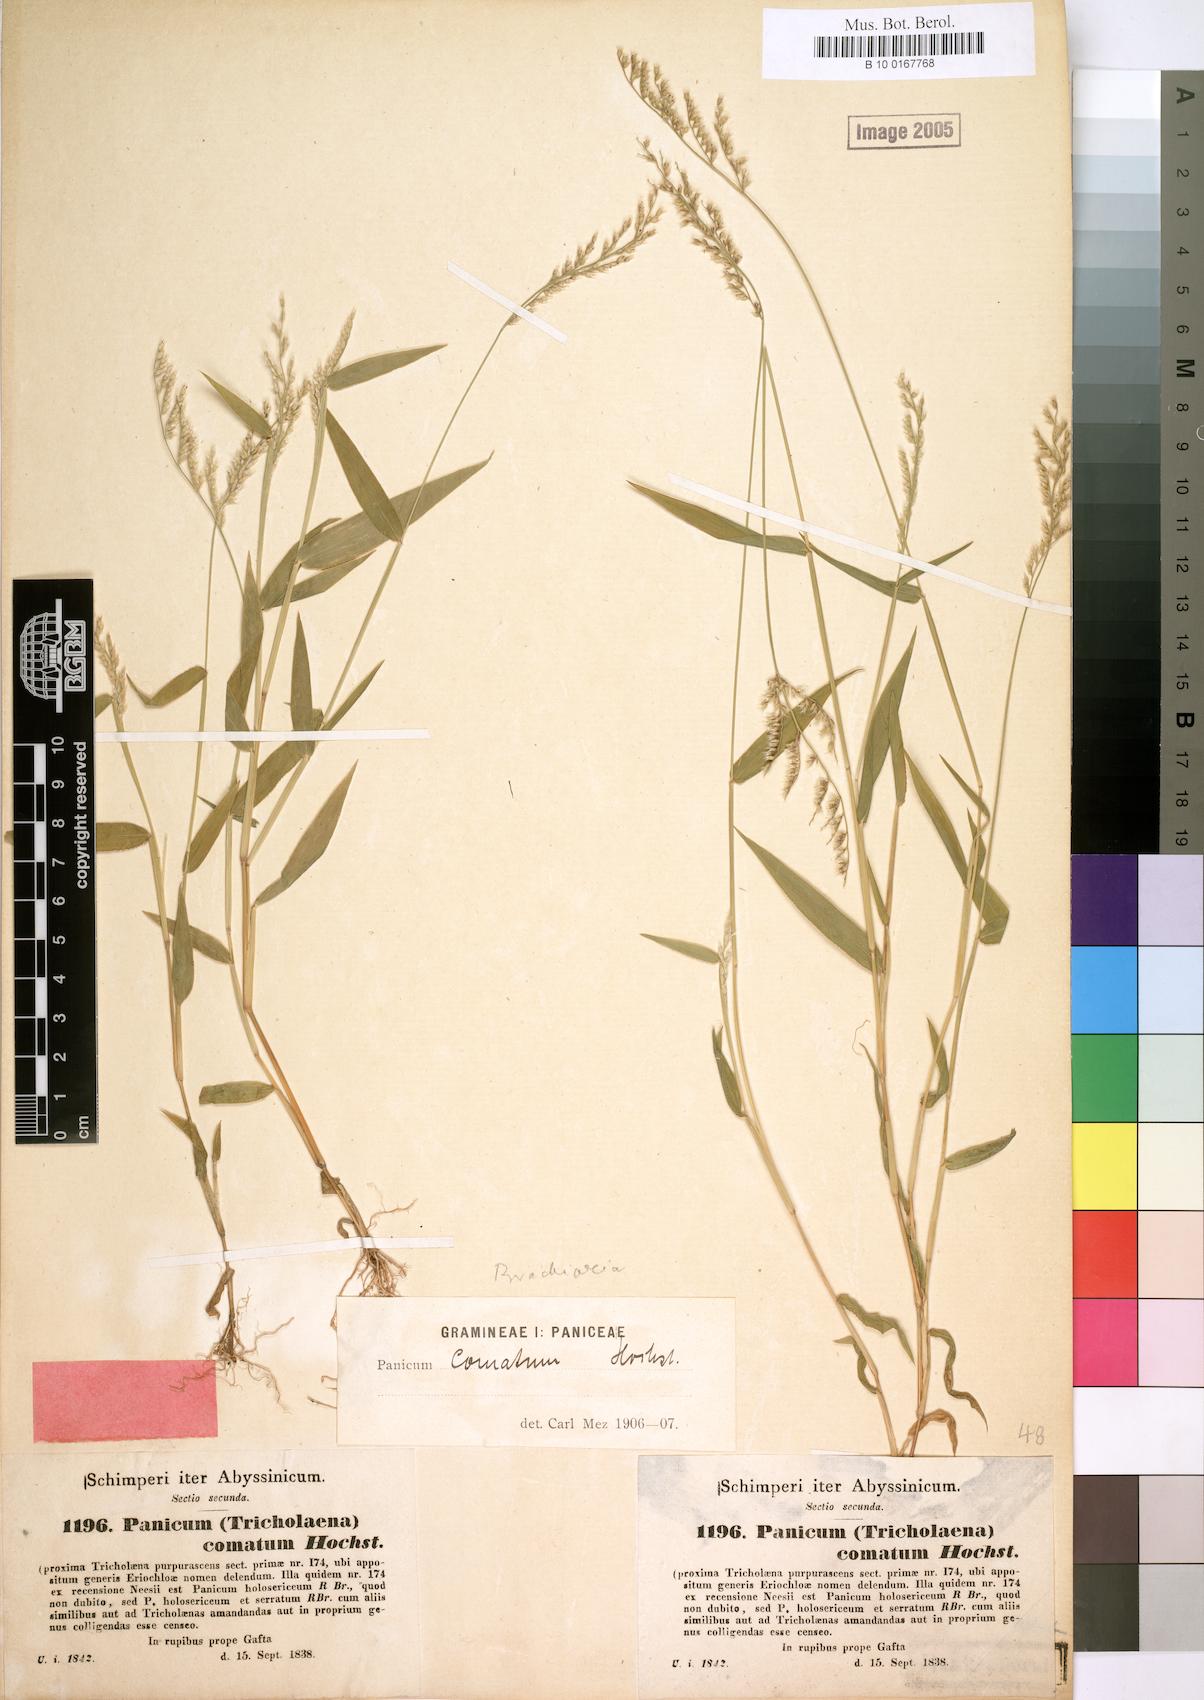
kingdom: Plantae
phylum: Tracheophyta
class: Liliopsida
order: Poales
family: Poaceae
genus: Urochloa
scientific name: Urochloa comata
